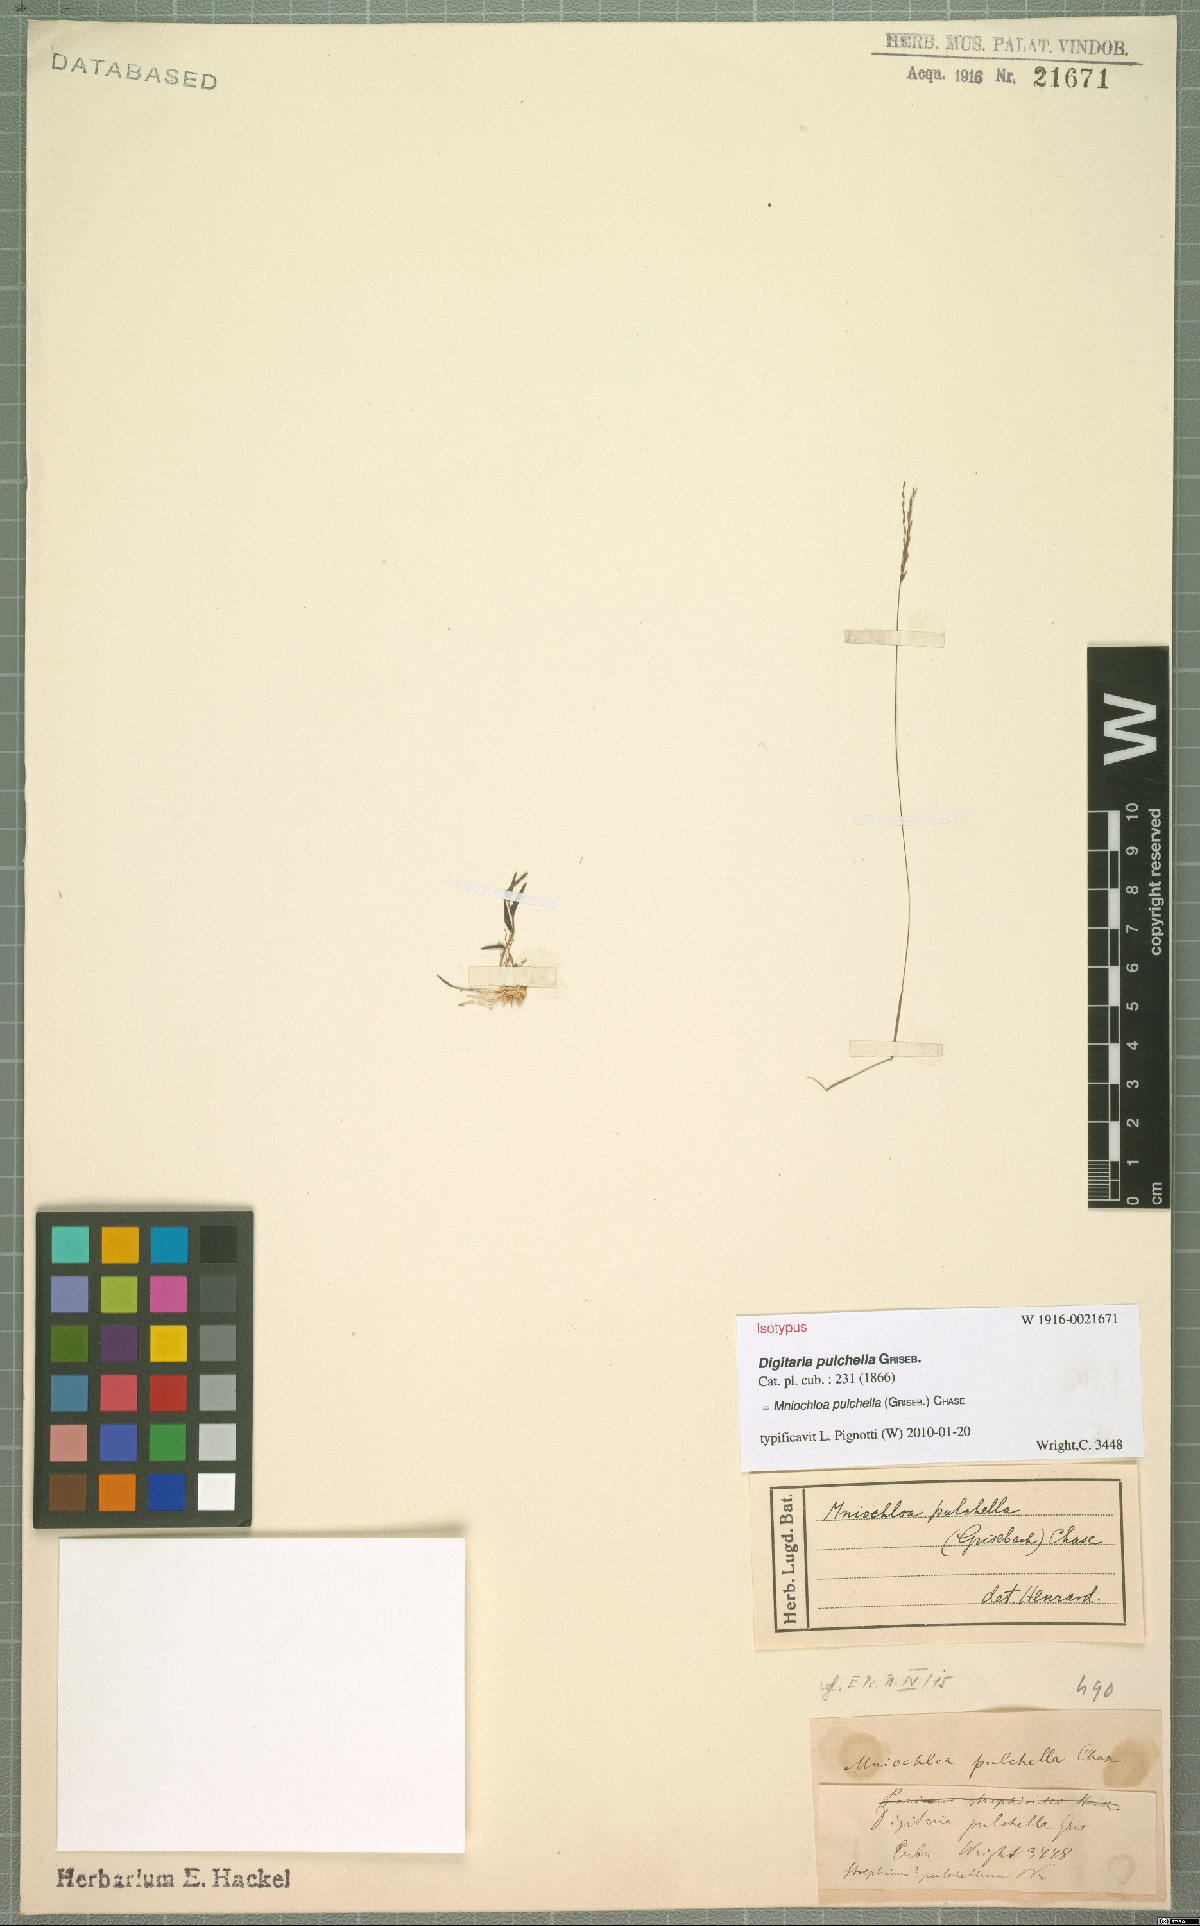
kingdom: Plantae
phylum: Tracheophyta
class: Liliopsida
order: Poales
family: Poaceae
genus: Mniochloa
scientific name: Mniochloa pulchella
